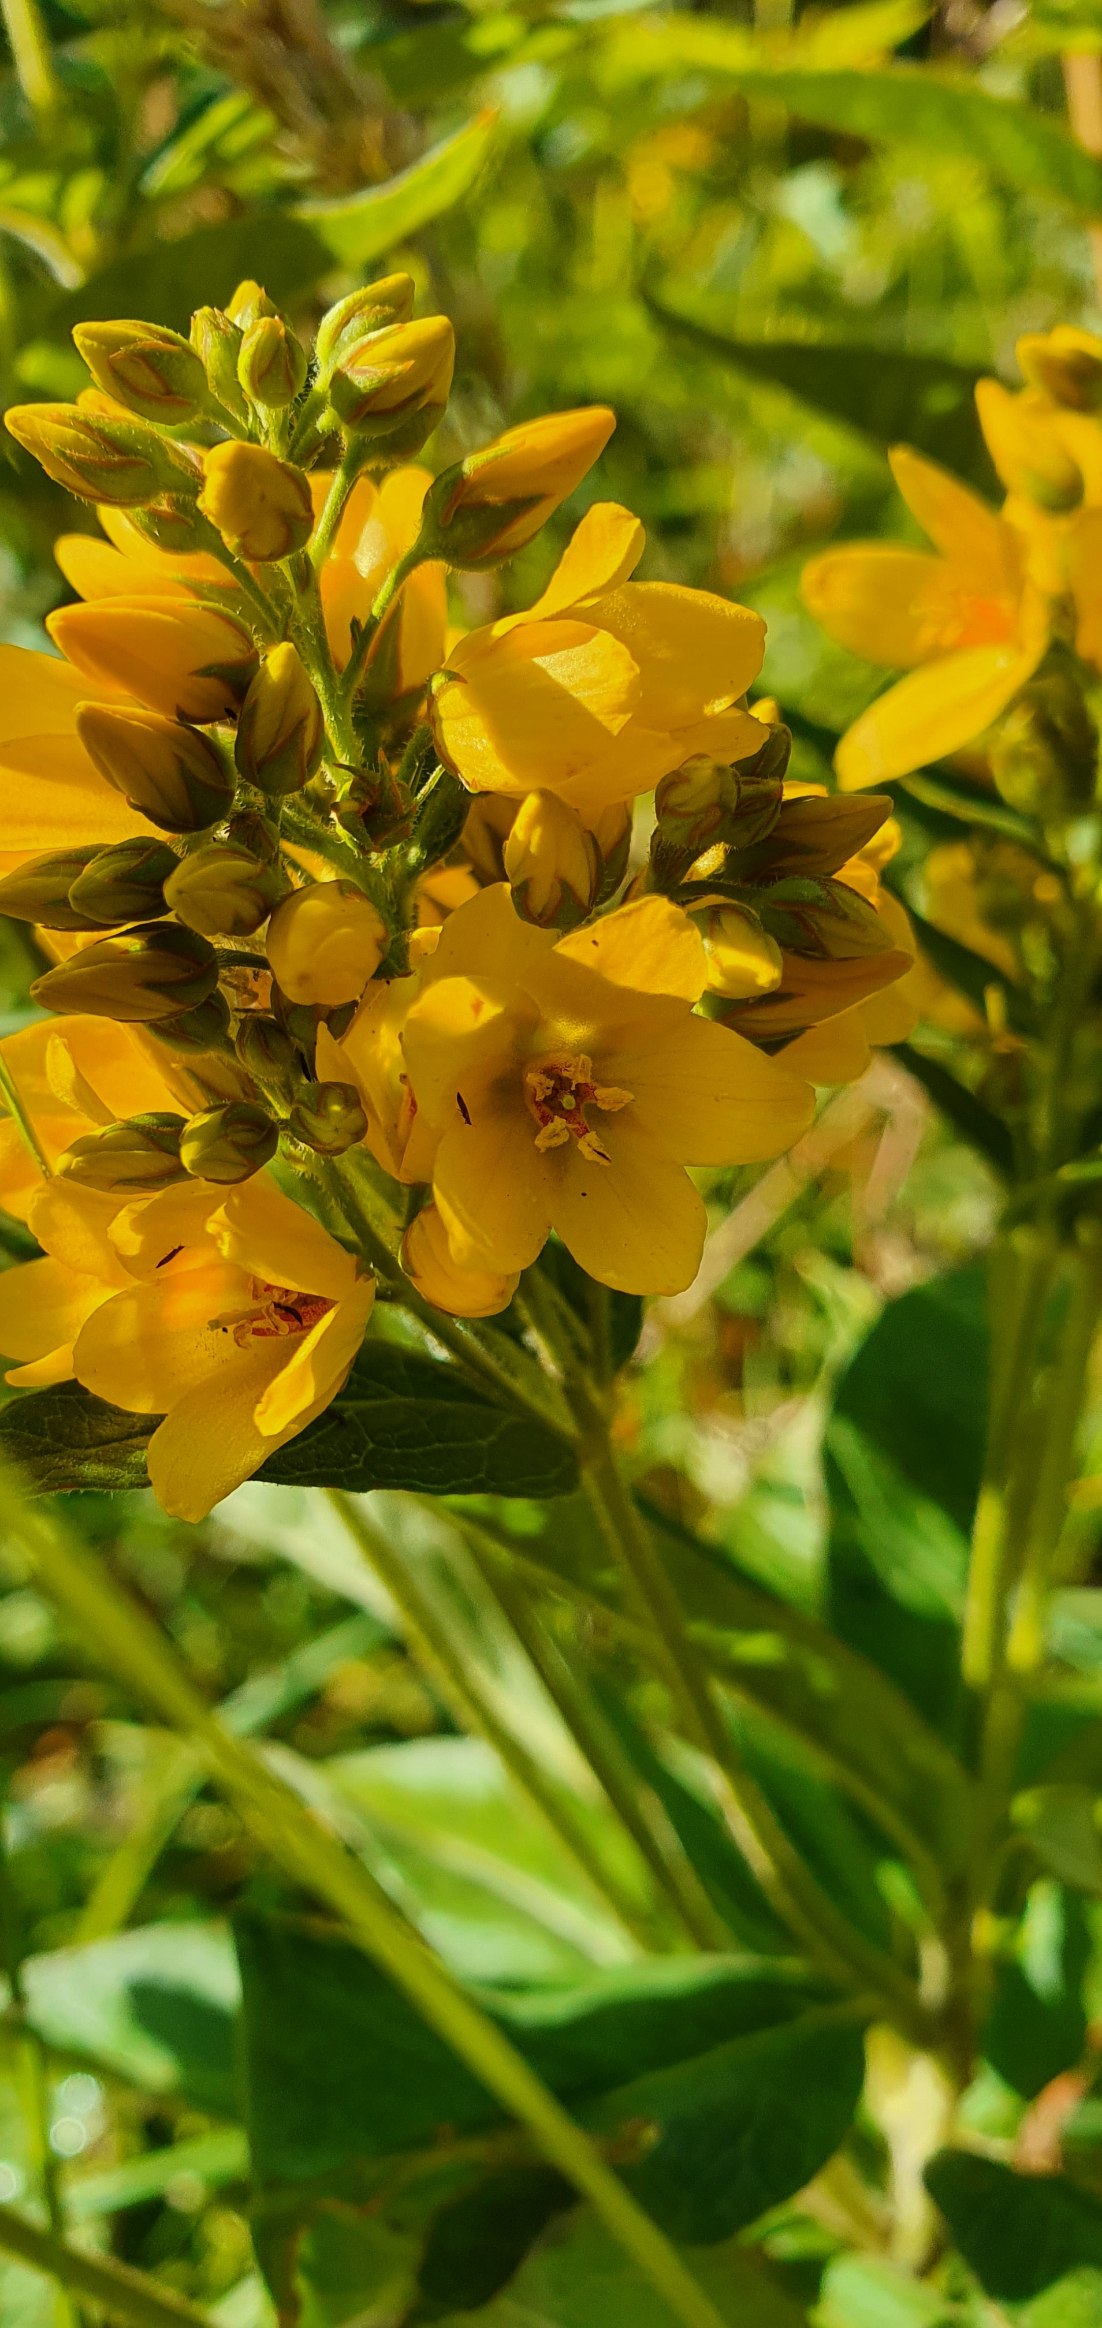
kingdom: Plantae
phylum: Tracheophyta
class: Magnoliopsida
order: Ericales
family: Primulaceae
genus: Lysimachia
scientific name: Lysimachia vulgaris
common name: Almindelig fredløs
